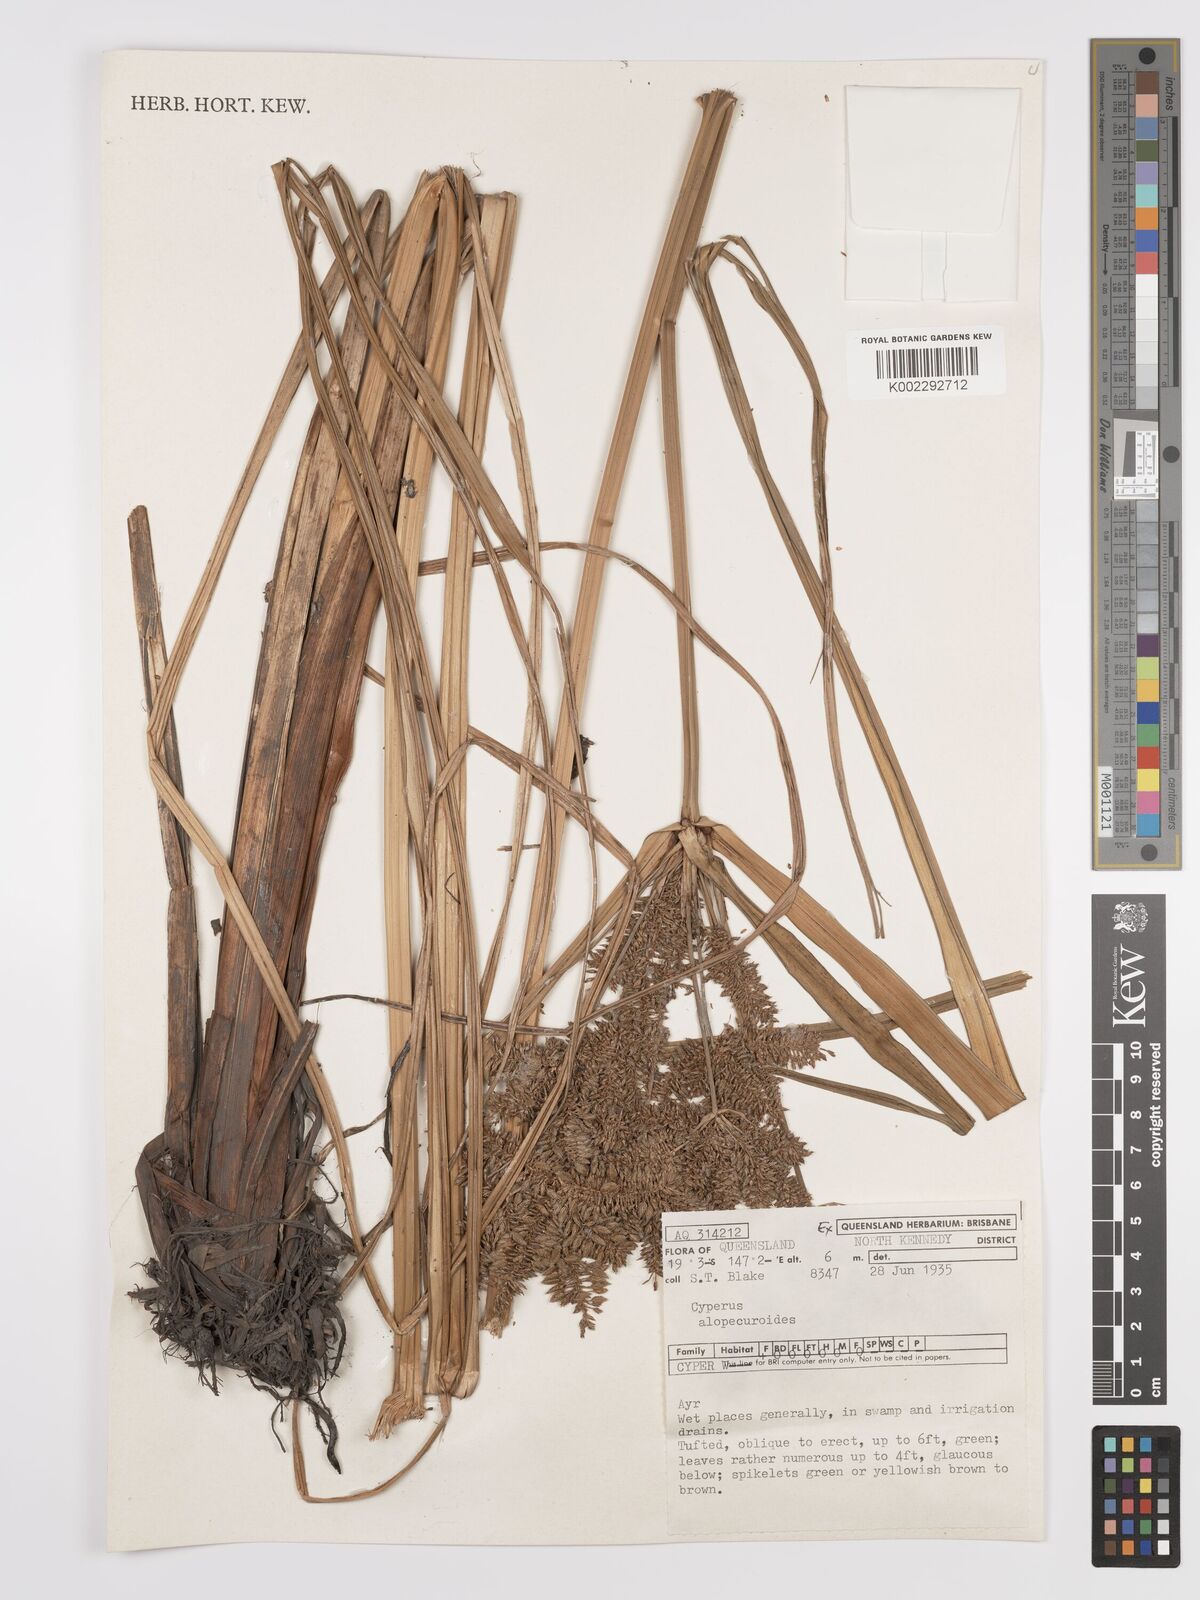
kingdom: Plantae
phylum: Tracheophyta
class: Liliopsida
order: Poales
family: Cyperaceae
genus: Cyperus
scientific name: Cyperus alopecuroides
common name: Foxtail flatsedge
